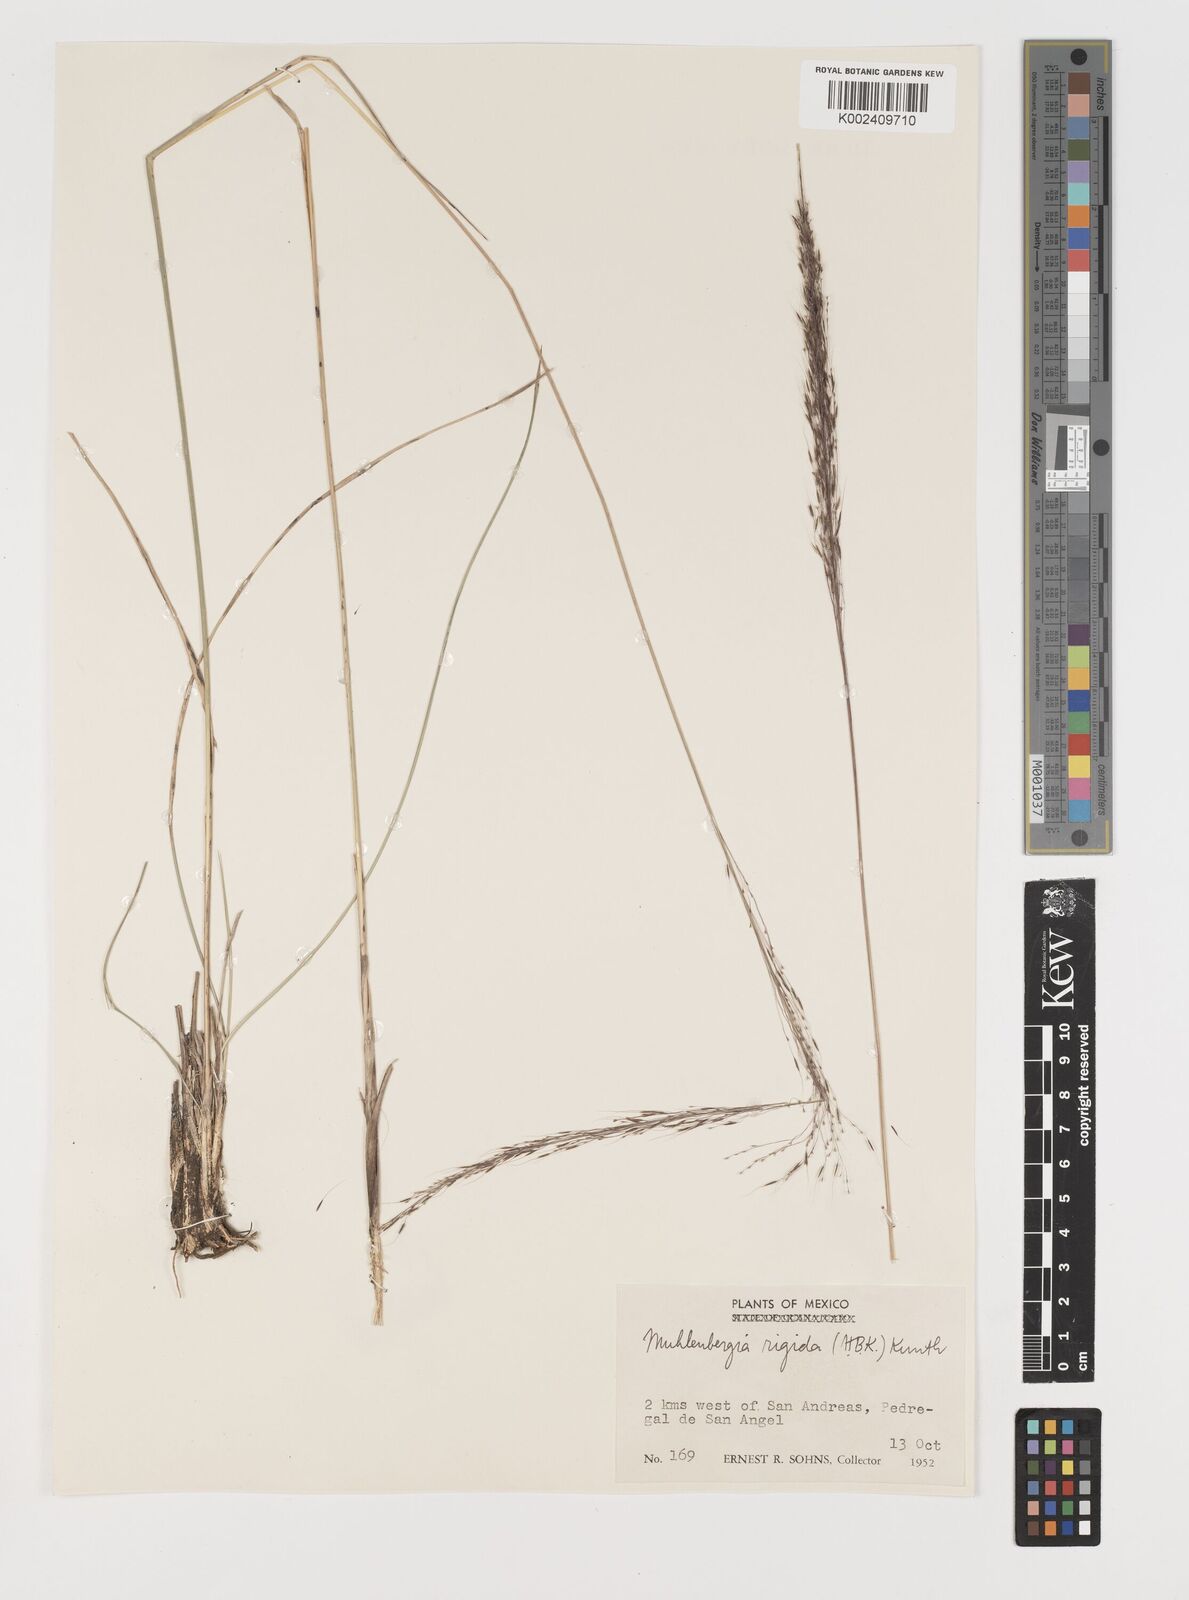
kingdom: Plantae
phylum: Tracheophyta
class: Liliopsida
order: Poales
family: Poaceae
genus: Muhlenbergia
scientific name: Muhlenbergia rigida
